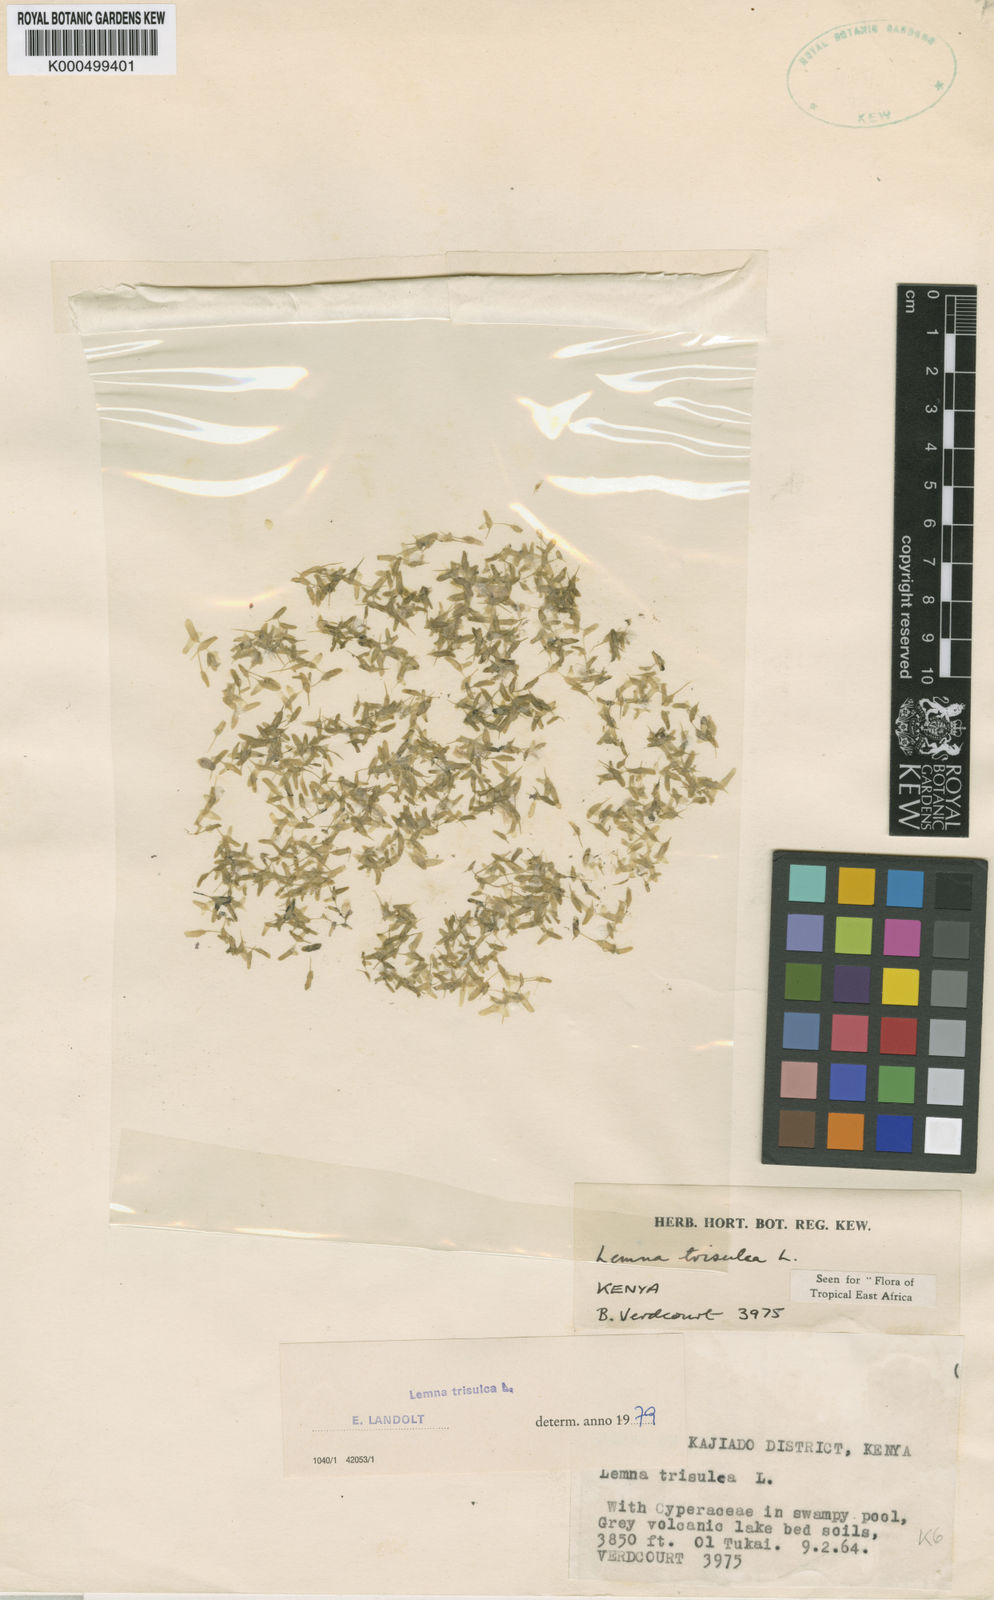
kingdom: Plantae
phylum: Tracheophyta
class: Liliopsida
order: Alismatales
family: Araceae
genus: Lemna
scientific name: Lemna
